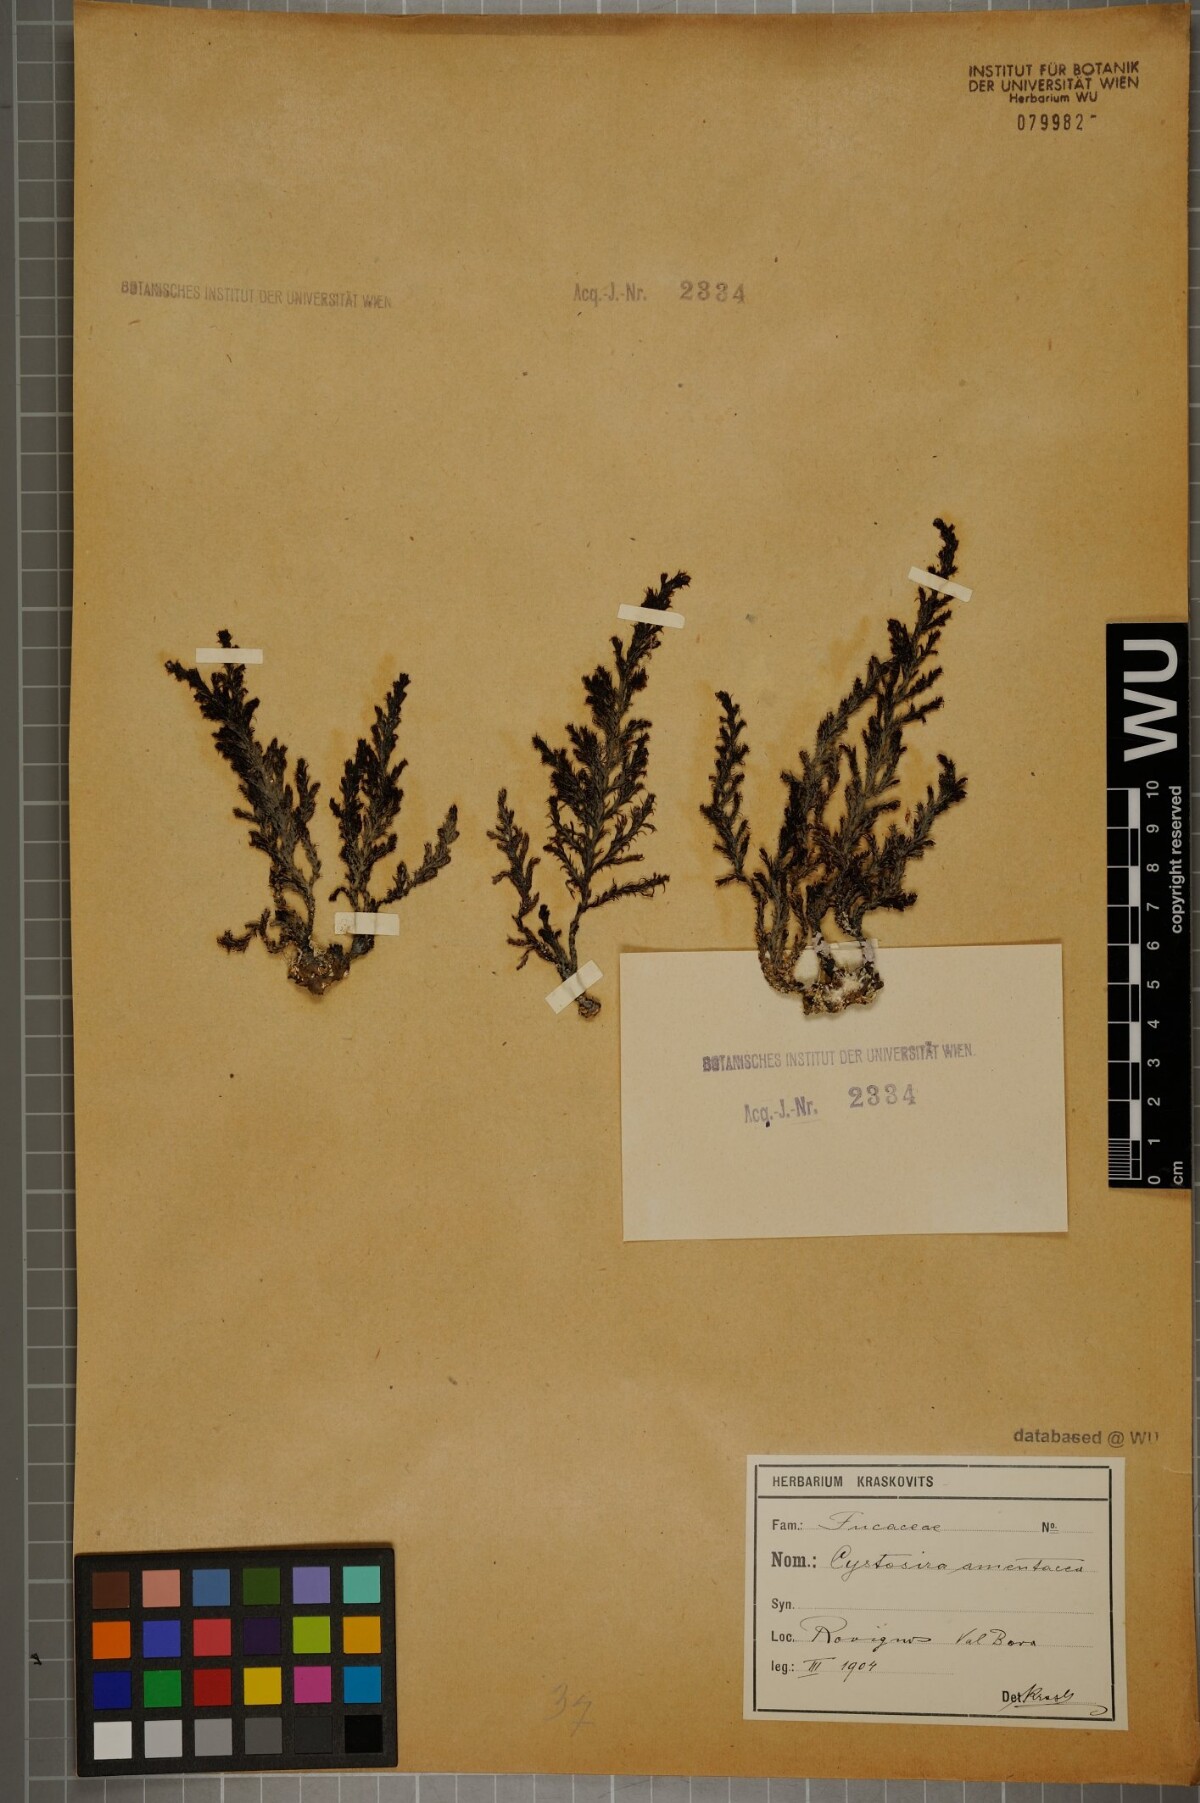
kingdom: Chromista
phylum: Ochrophyta
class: Phaeophyceae
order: Fucales
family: Sargassaceae
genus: Cystoseira
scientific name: Cystoseira Ericaria amentacea
